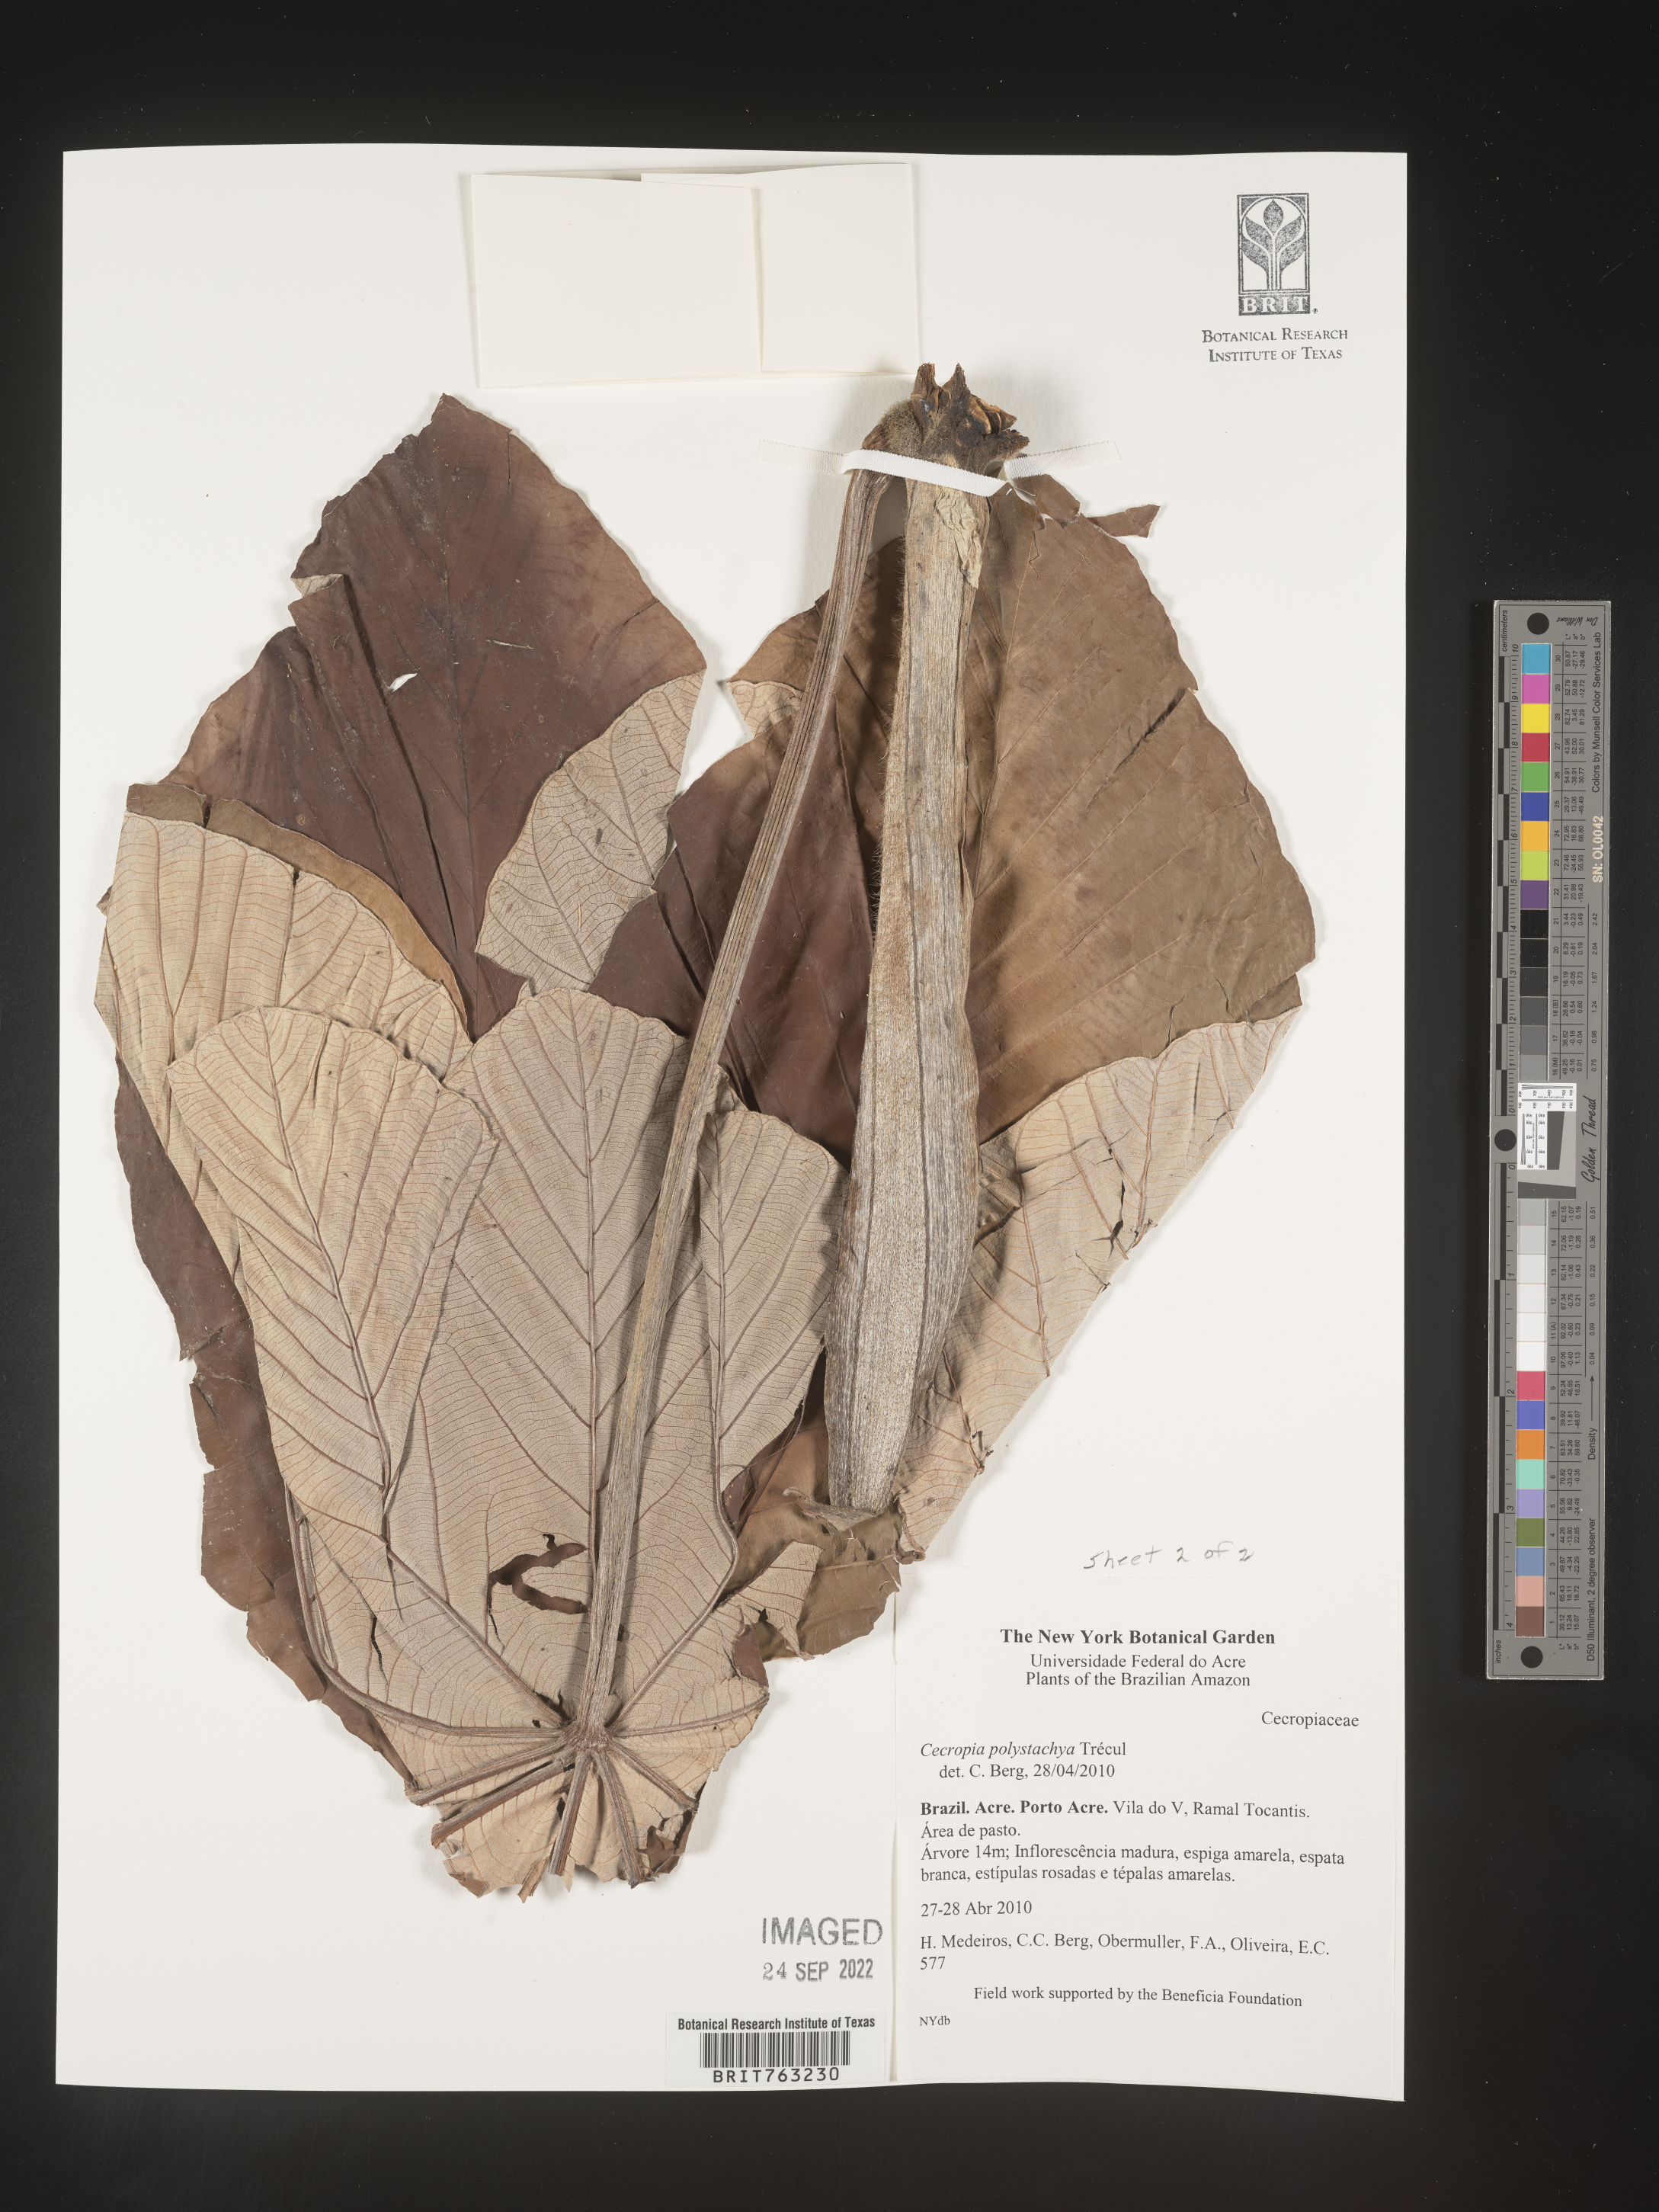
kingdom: Plantae
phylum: Tracheophyta
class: Magnoliopsida
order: Rosales
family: Urticaceae
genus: Cecropia
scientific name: Cecropia polystachya
